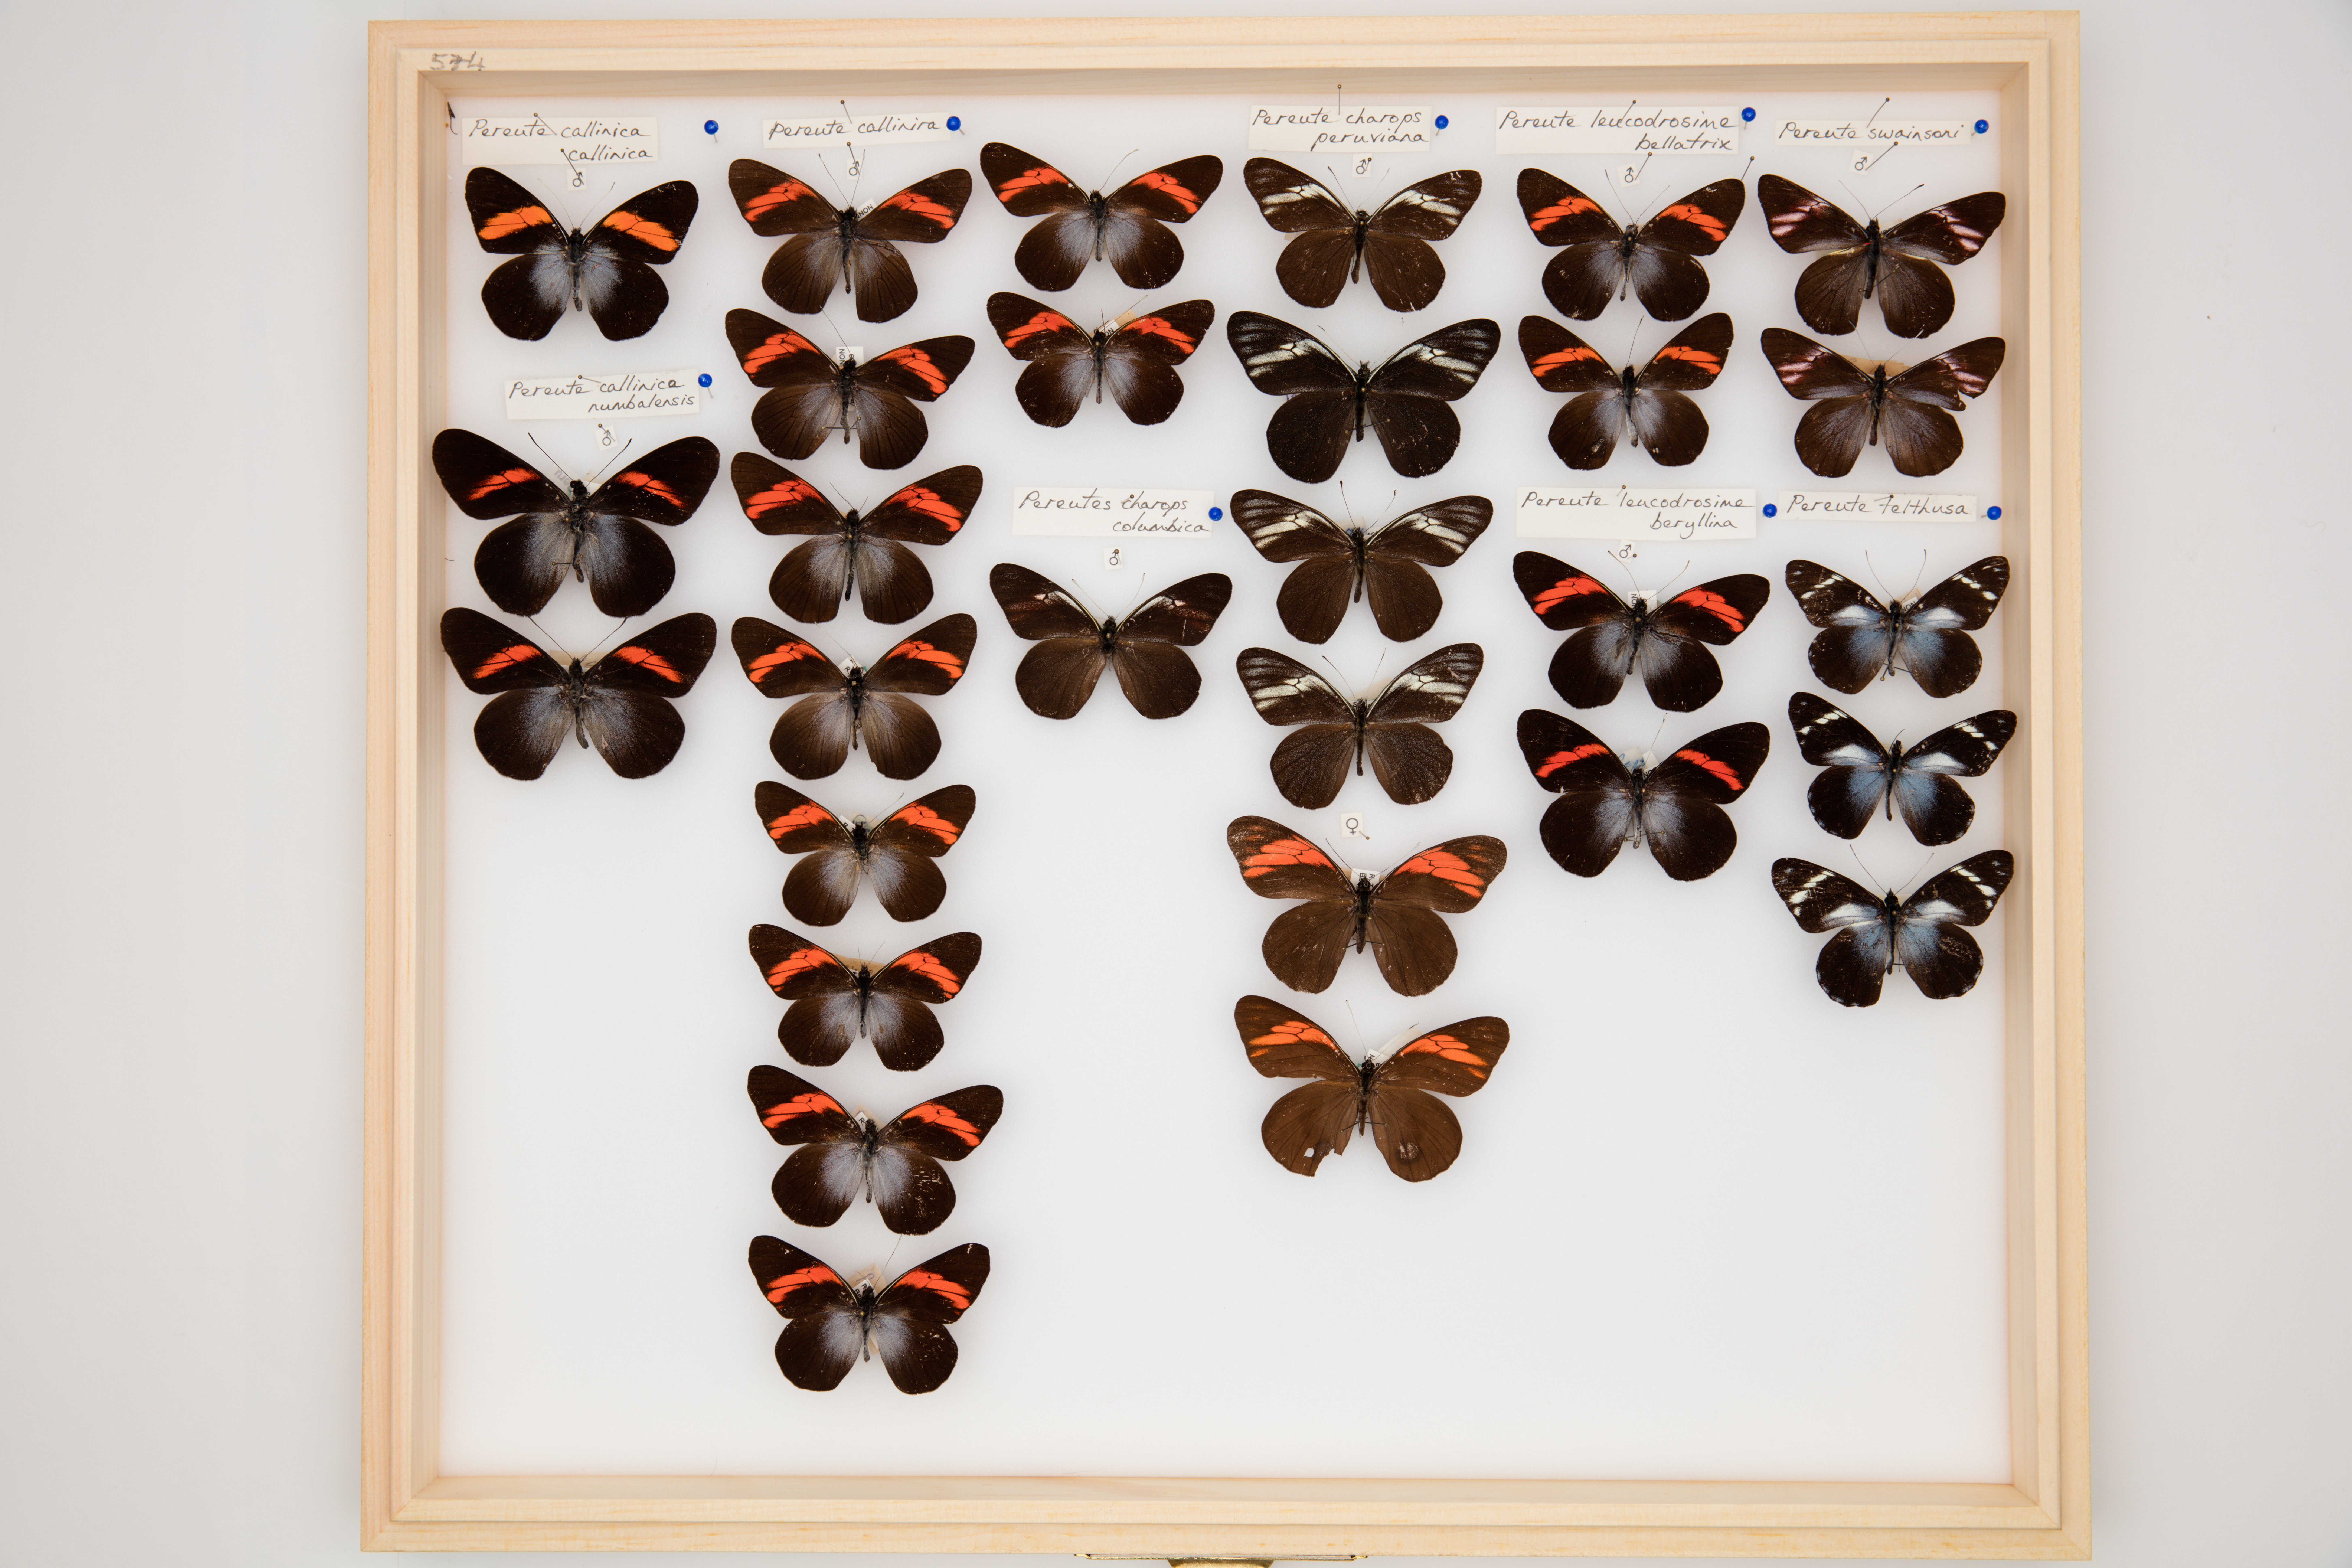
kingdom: Animalia
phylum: Arthropoda
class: Insecta
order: Lepidoptera
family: Pieridae
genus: Pereute
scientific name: Pereute charops
